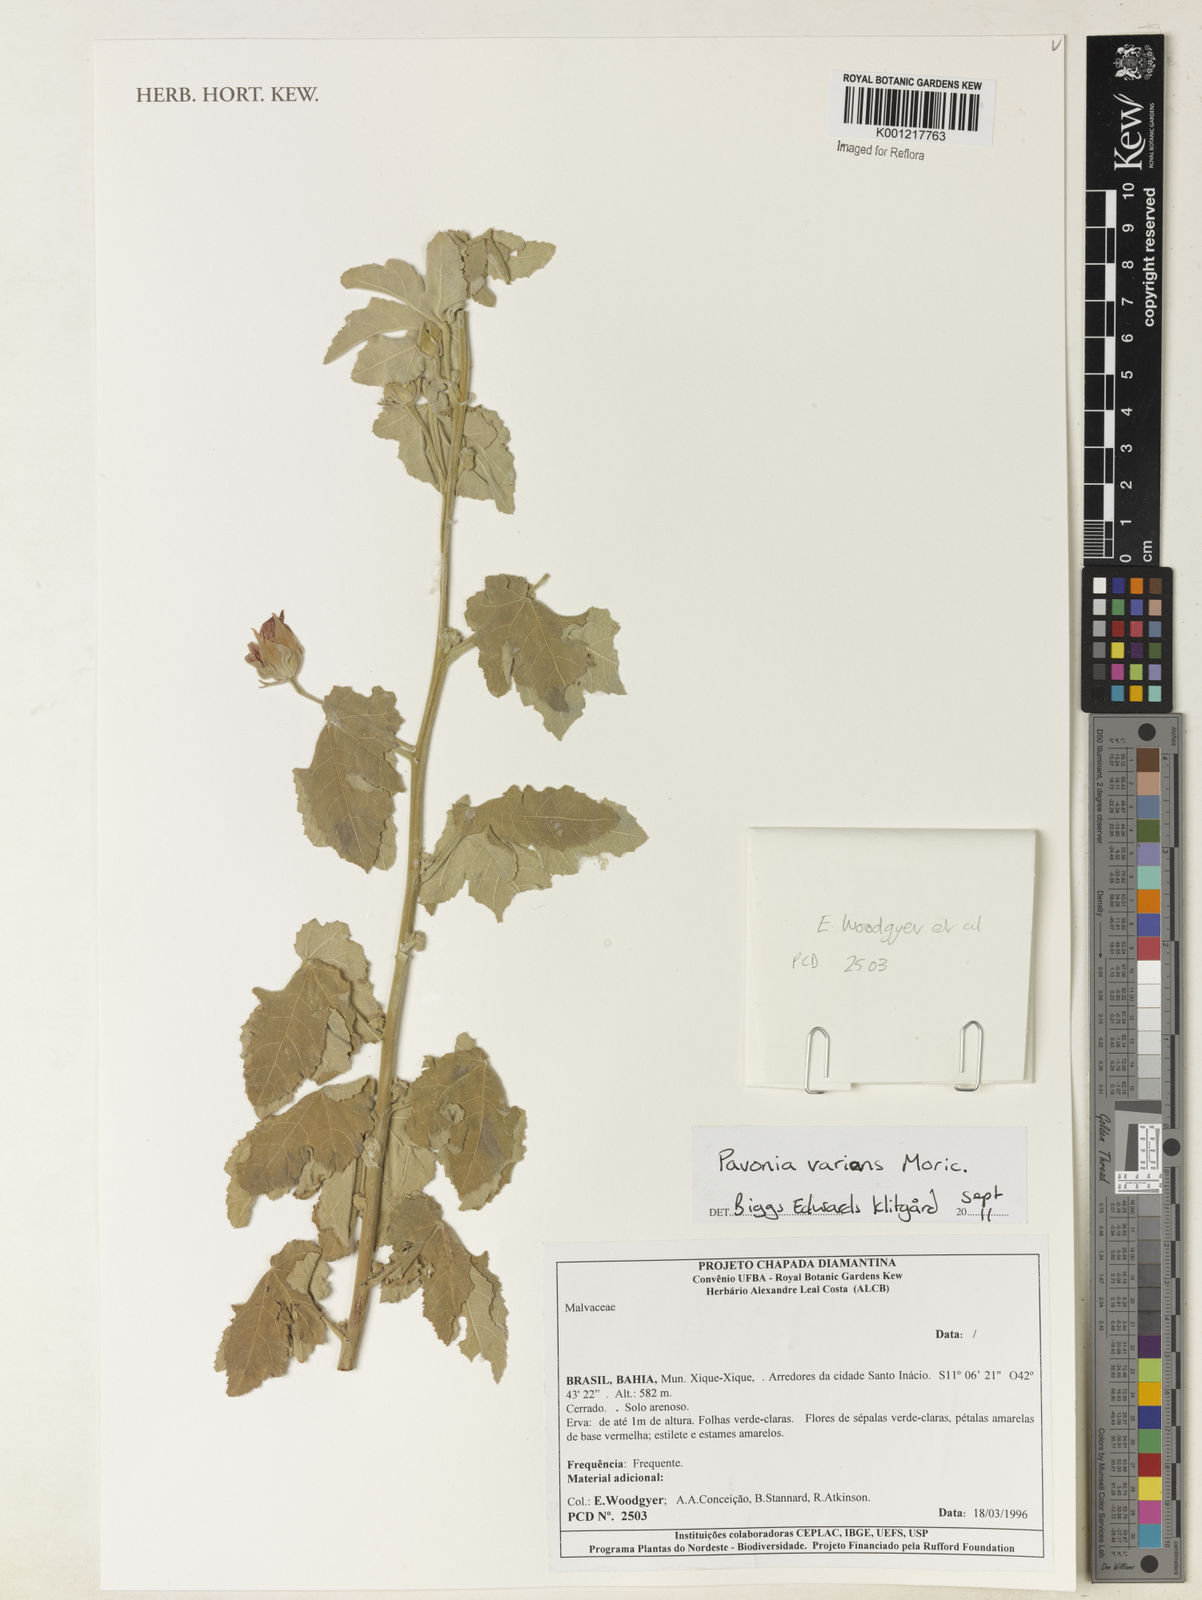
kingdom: Plantae
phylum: Tracheophyta
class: Magnoliopsida
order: Malvales
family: Malvaceae
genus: Pavonia
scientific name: Pavonia varians
